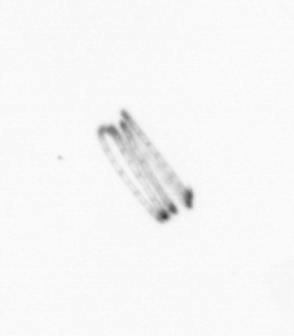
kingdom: Chromista
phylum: Ochrophyta
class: Bacillariophyceae
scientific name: Bacillariophyceae
